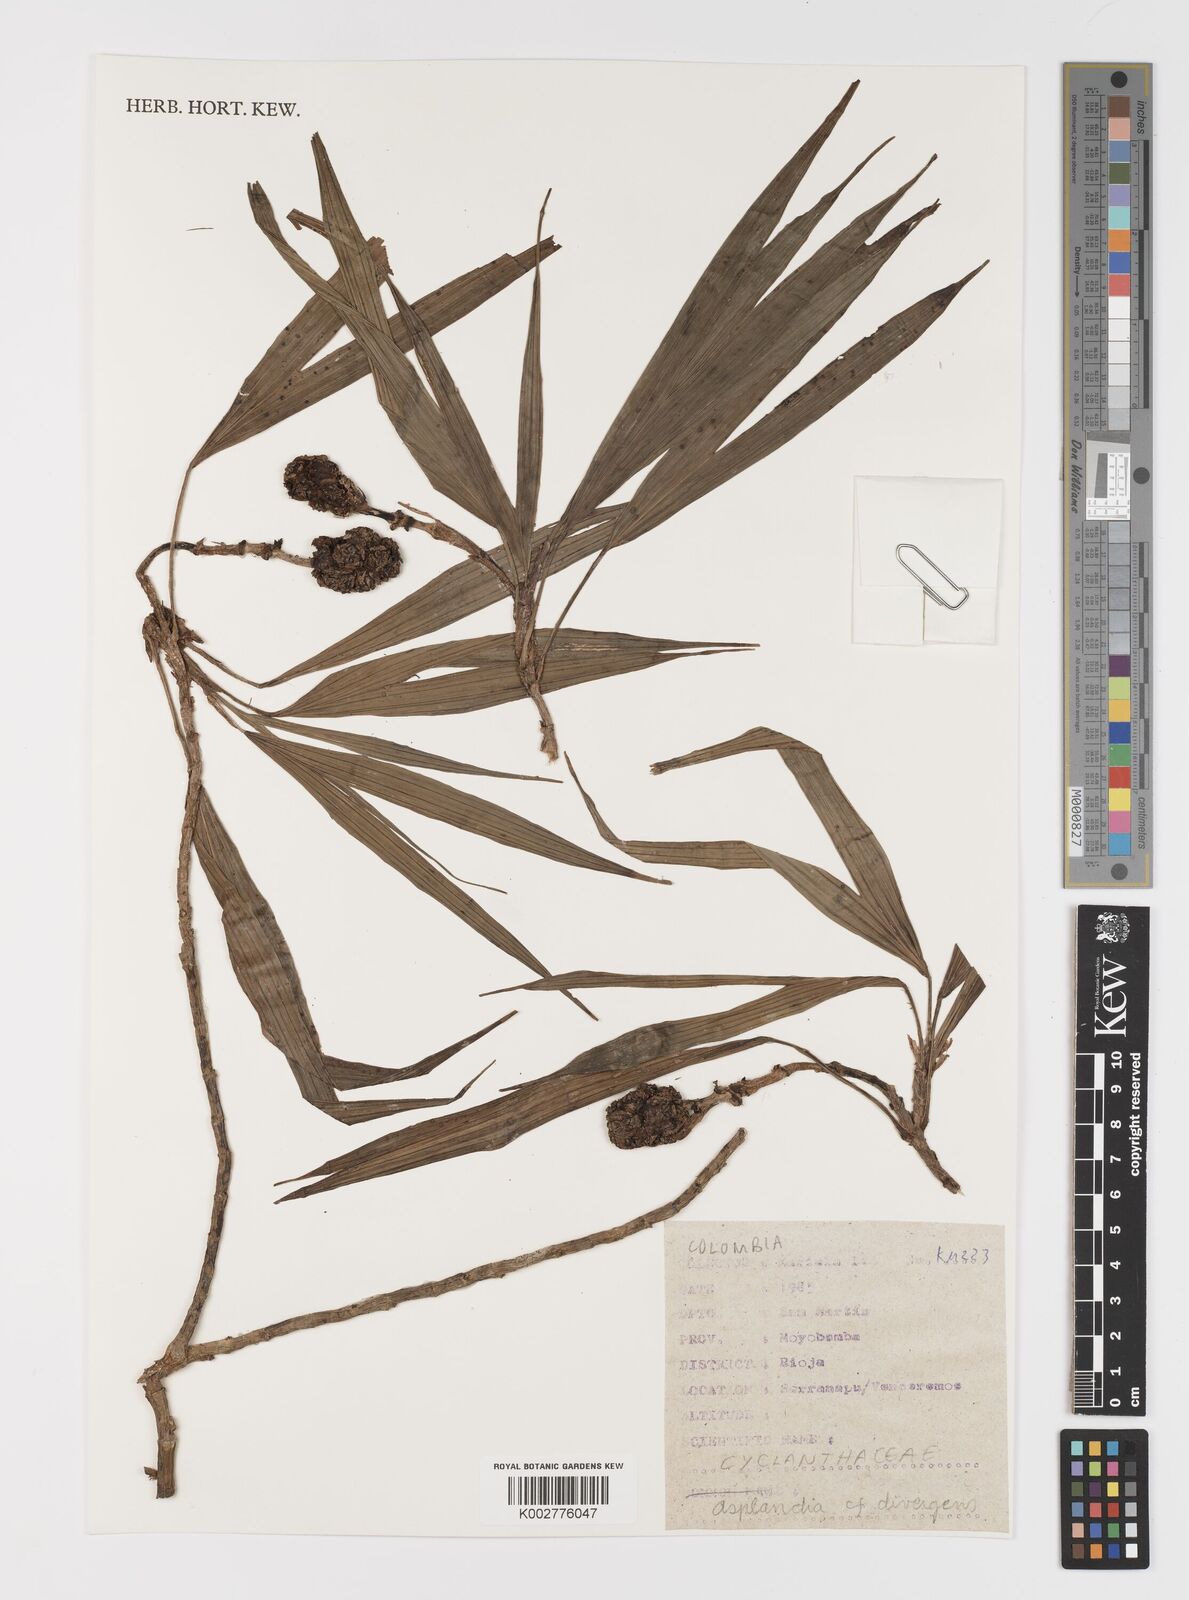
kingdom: Plantae
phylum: Tracheophyta
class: Liliopsida
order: Pandanales
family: Cyclanthaceae
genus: Asplundia
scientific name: Asplundia divergens
